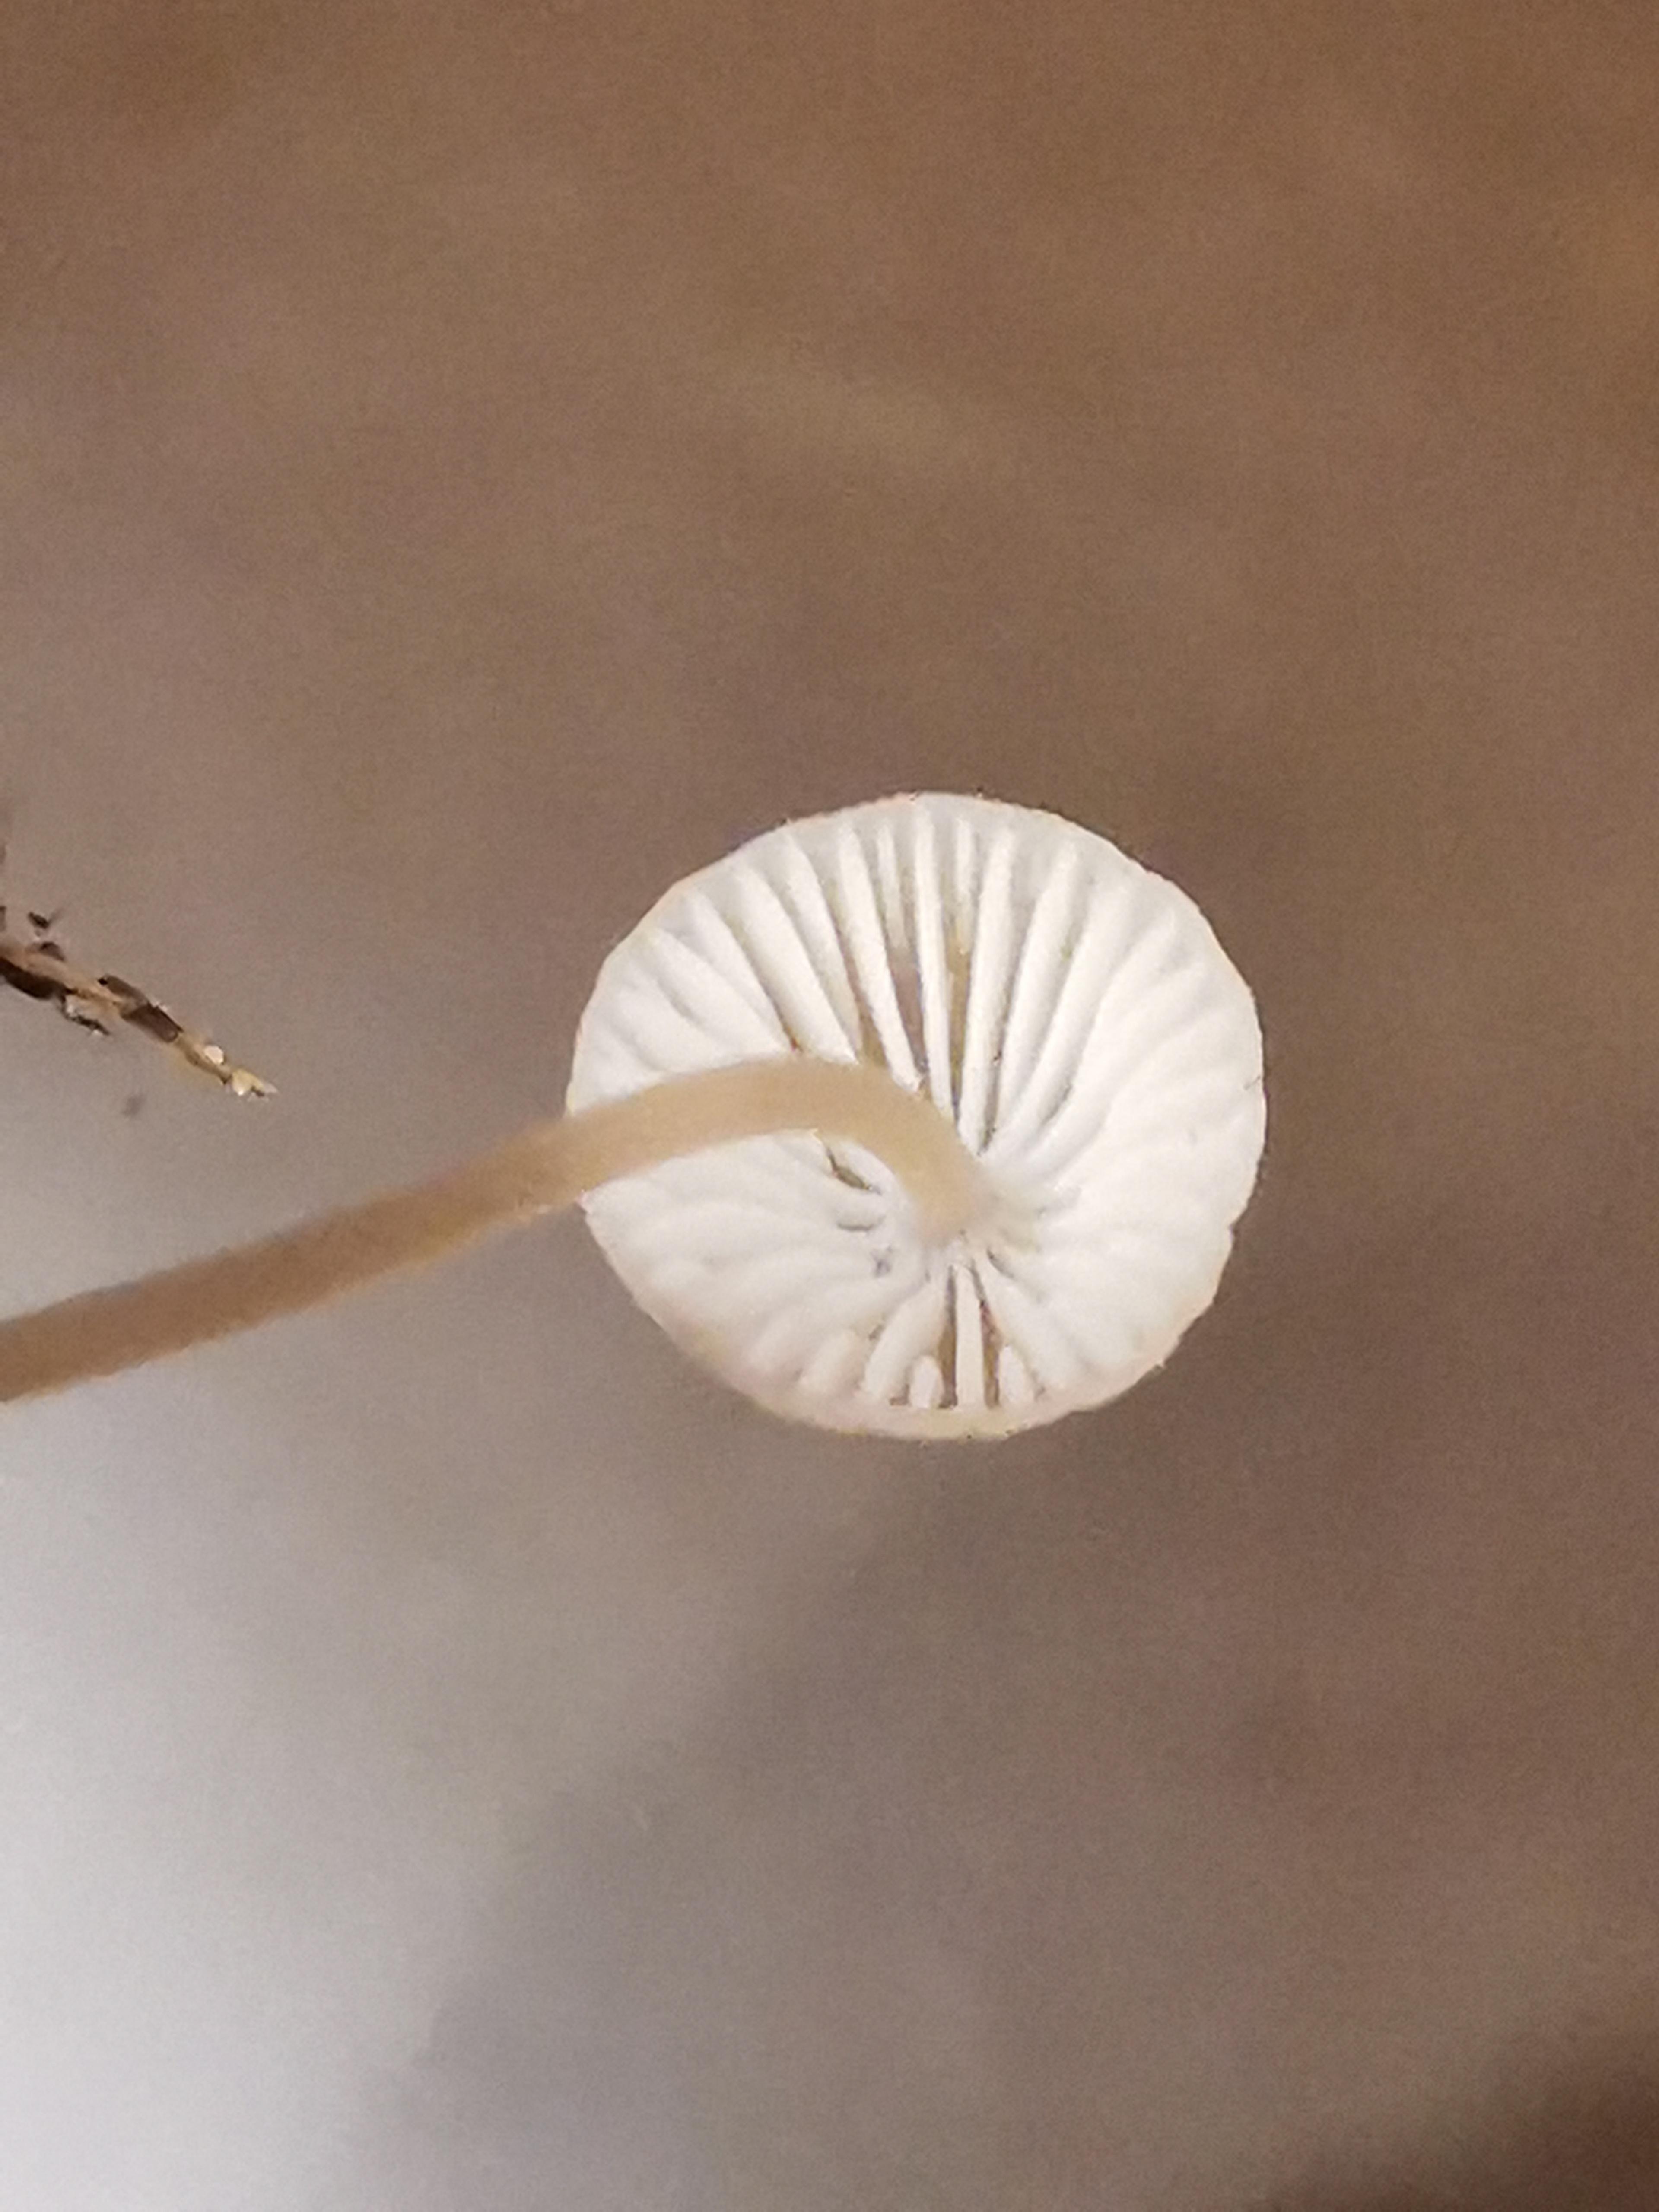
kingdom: Fungi
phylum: Basidiomycota
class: Agaricomycetes
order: Agaricales
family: Mycenaceae
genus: Mycena
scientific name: Mycena
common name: huesvamp
